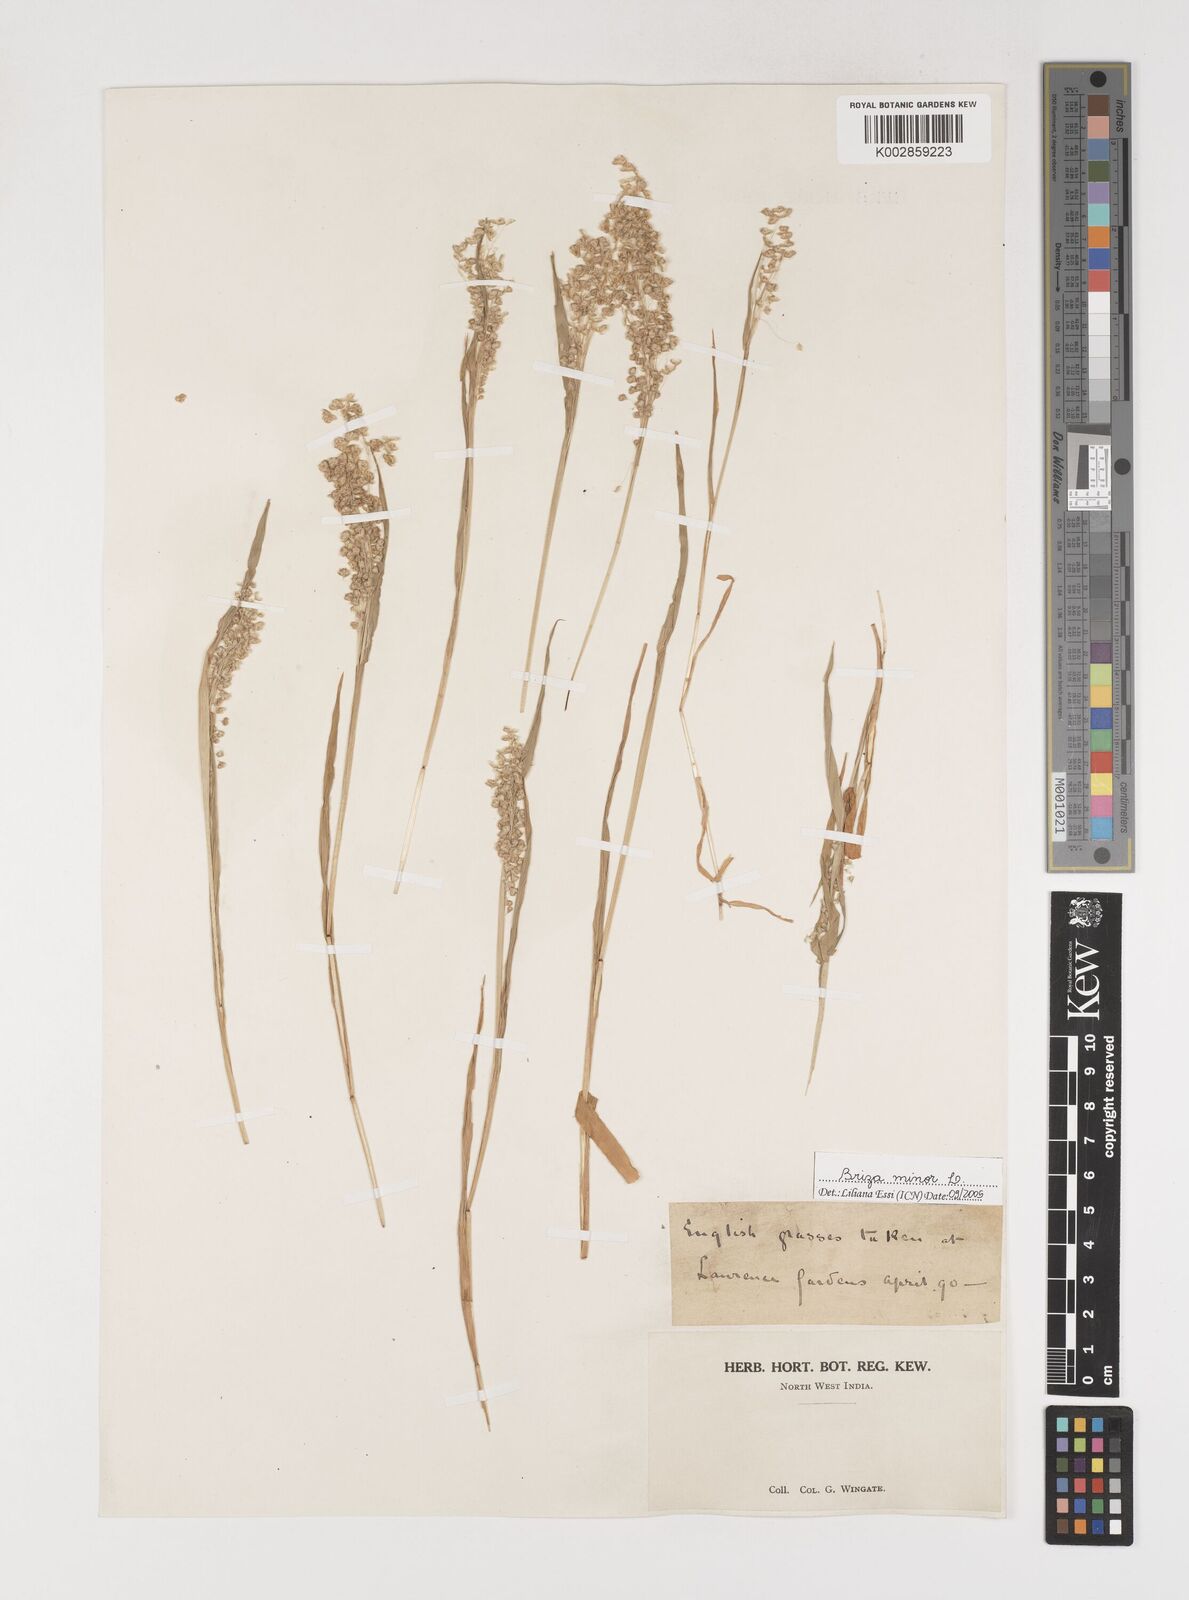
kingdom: Plantae
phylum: Tracheophyta
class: Liliopsida
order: Poales
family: Poaceae
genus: Briza
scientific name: Briza minor
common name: Lesser quaking-grass
